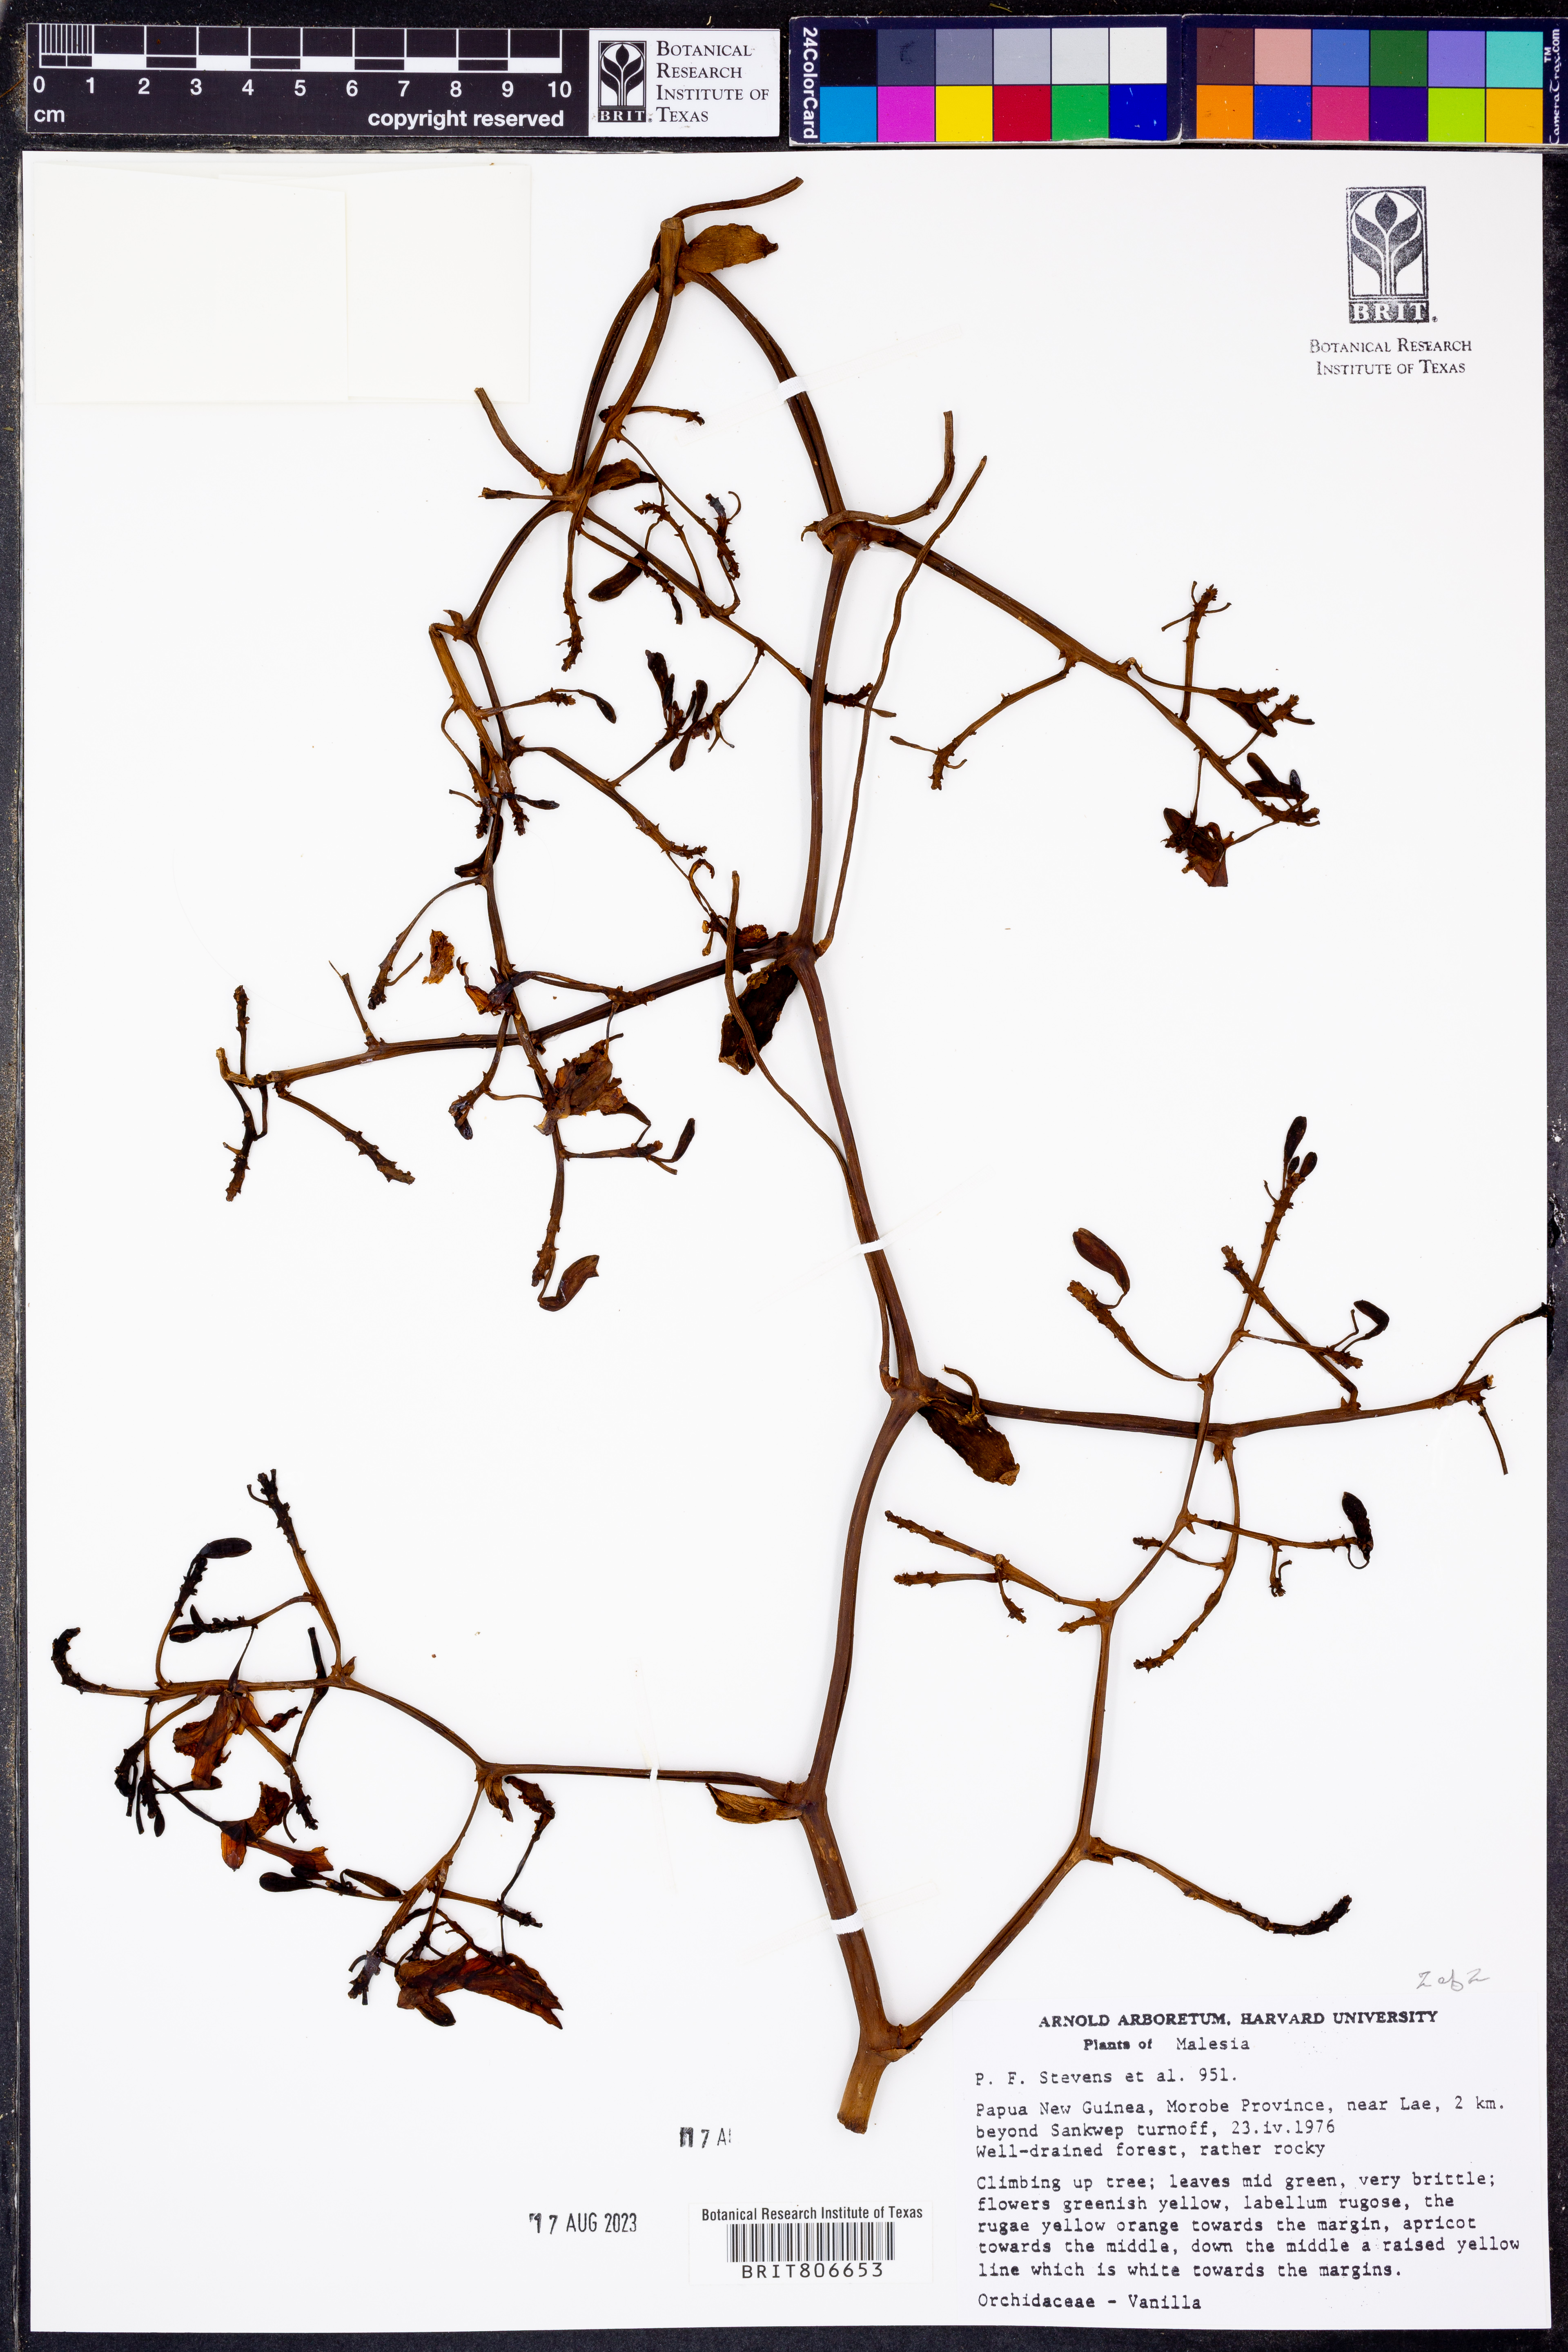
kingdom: Plantae
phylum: Tracheophyta
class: Liliopsida
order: Asparagales
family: Orchidaceae
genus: Vanilla
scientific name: Vanilla
